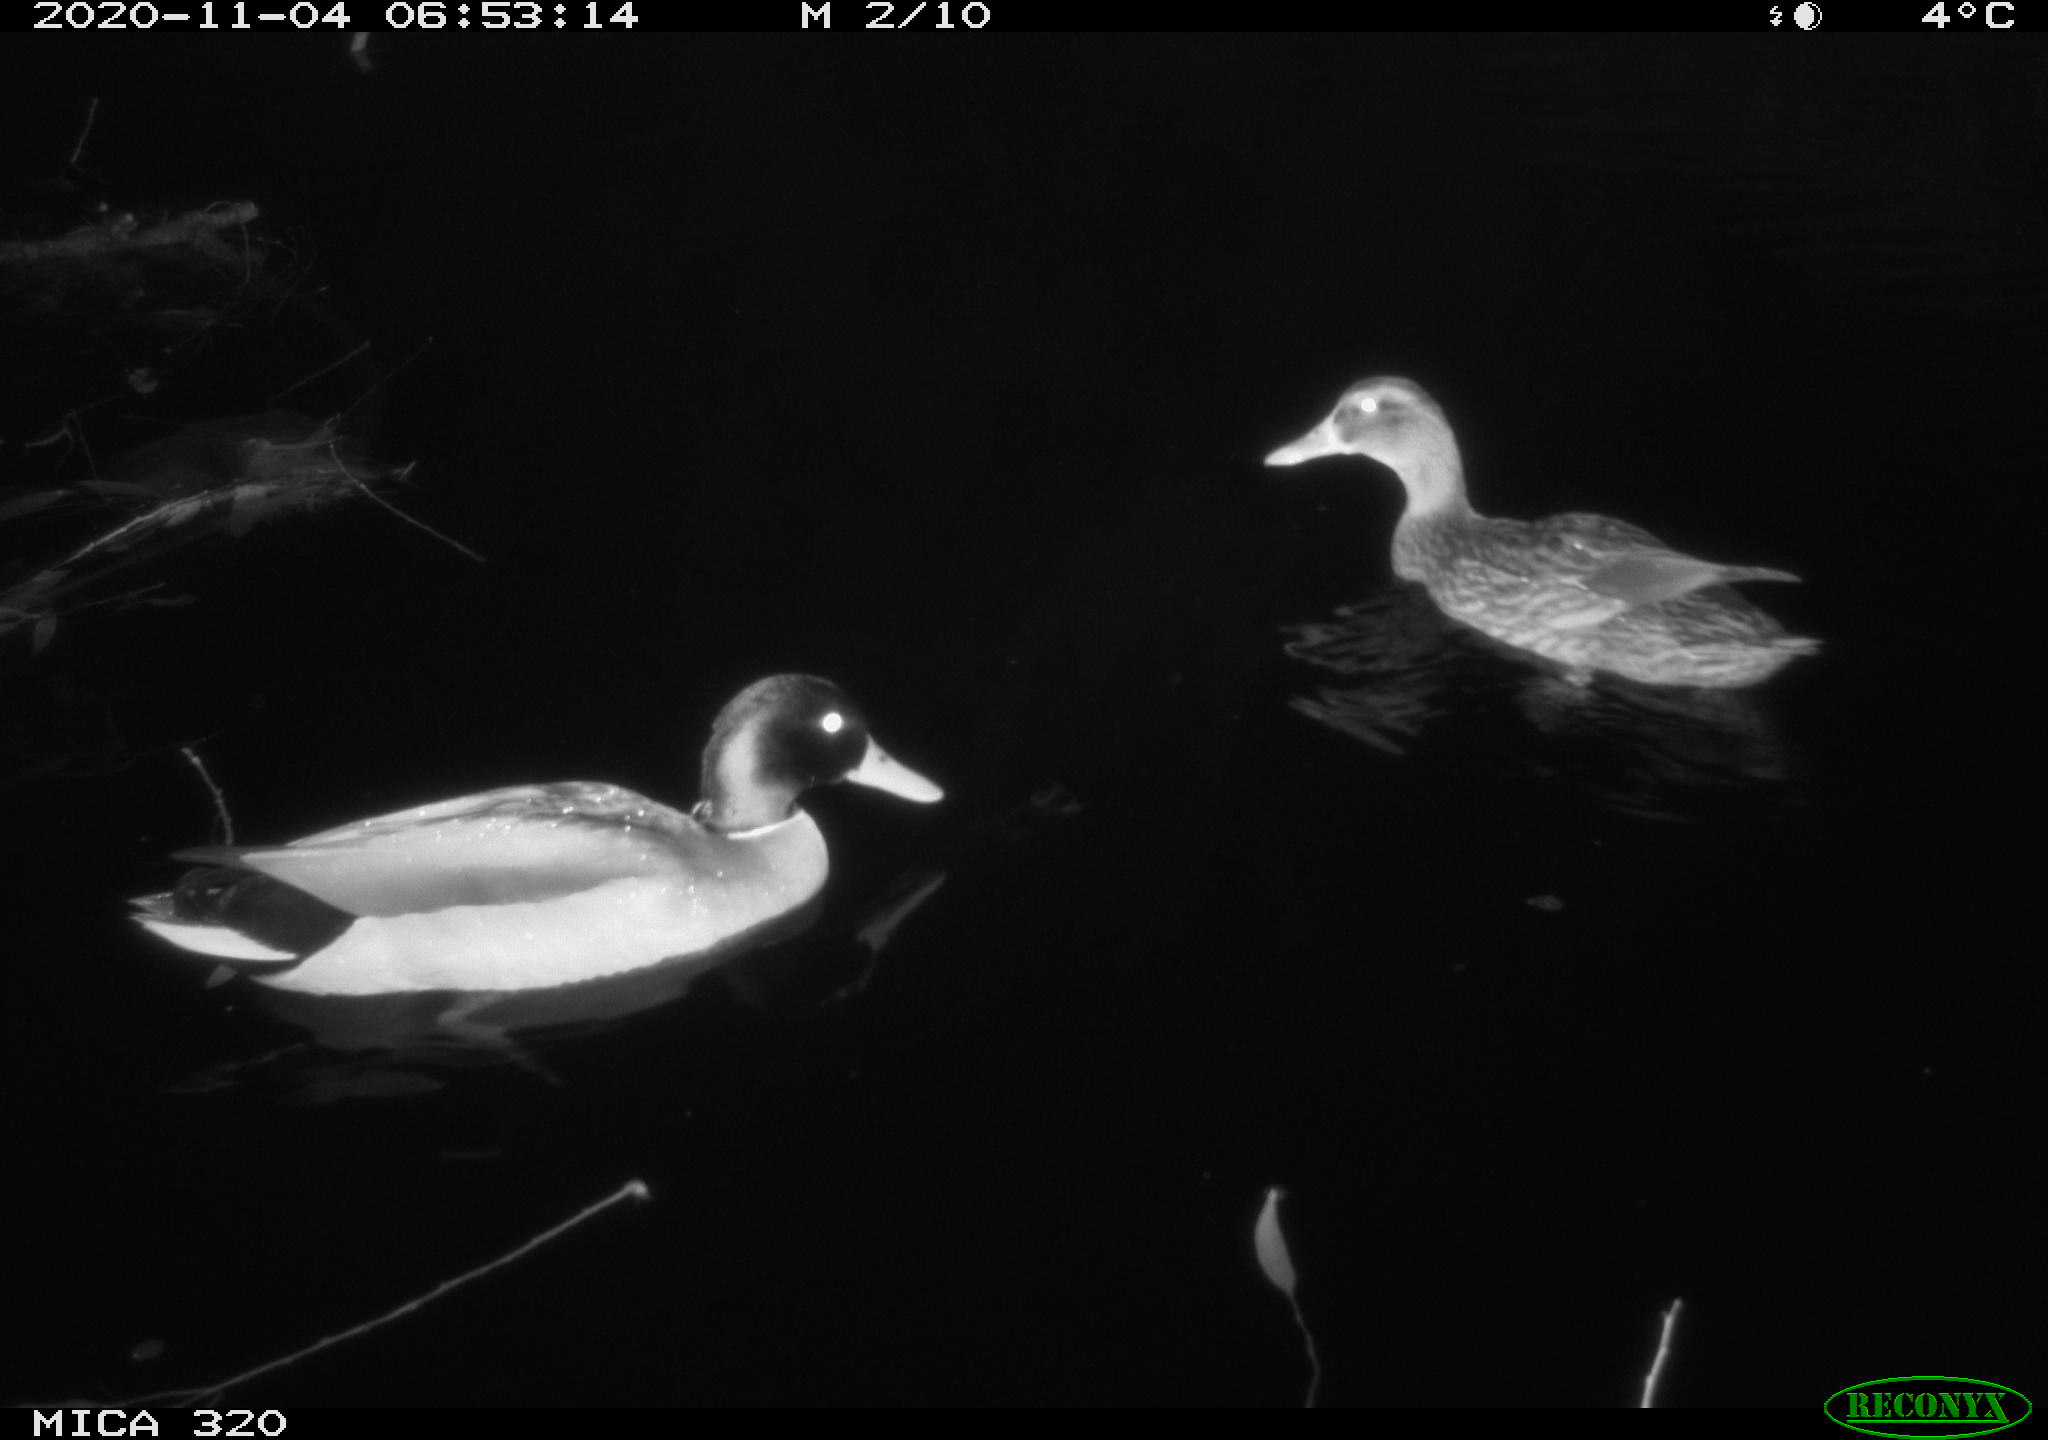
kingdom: Animalia
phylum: Chordata
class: Aves
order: Anseriformes
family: Anatidae
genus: Anas
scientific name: Anas platyrhynchos
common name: Mallard
